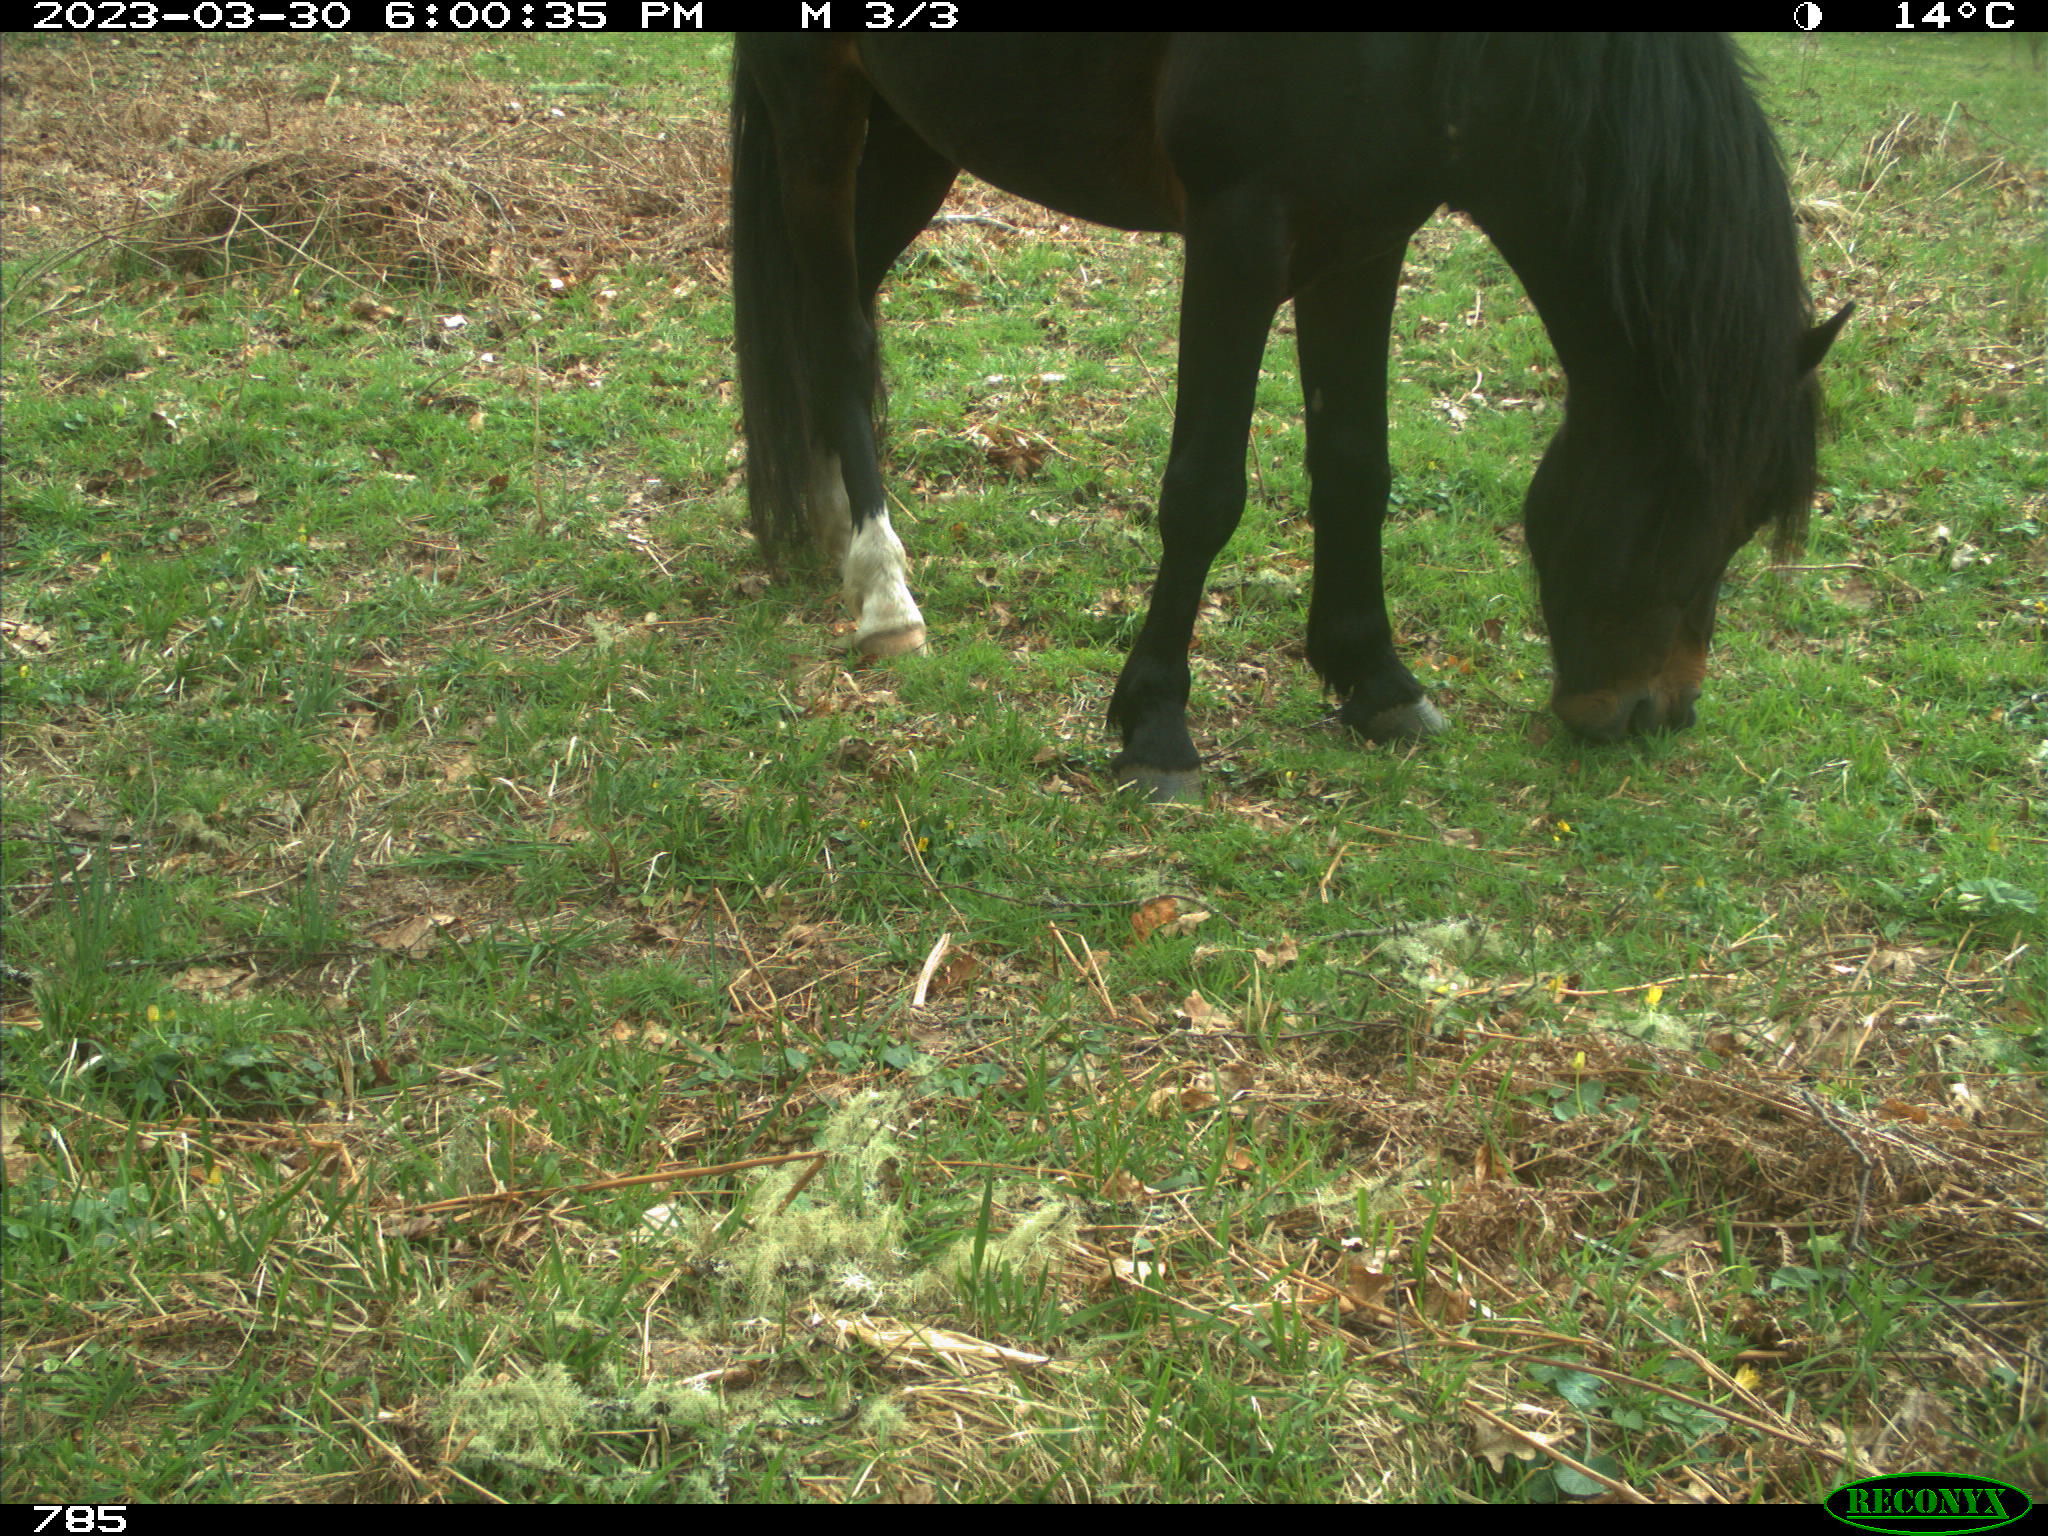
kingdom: Animalia
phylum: Chordata
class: Mammalia
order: Perissodactyla
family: Equidae
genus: Equus
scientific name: Equus caballus
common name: Horse
